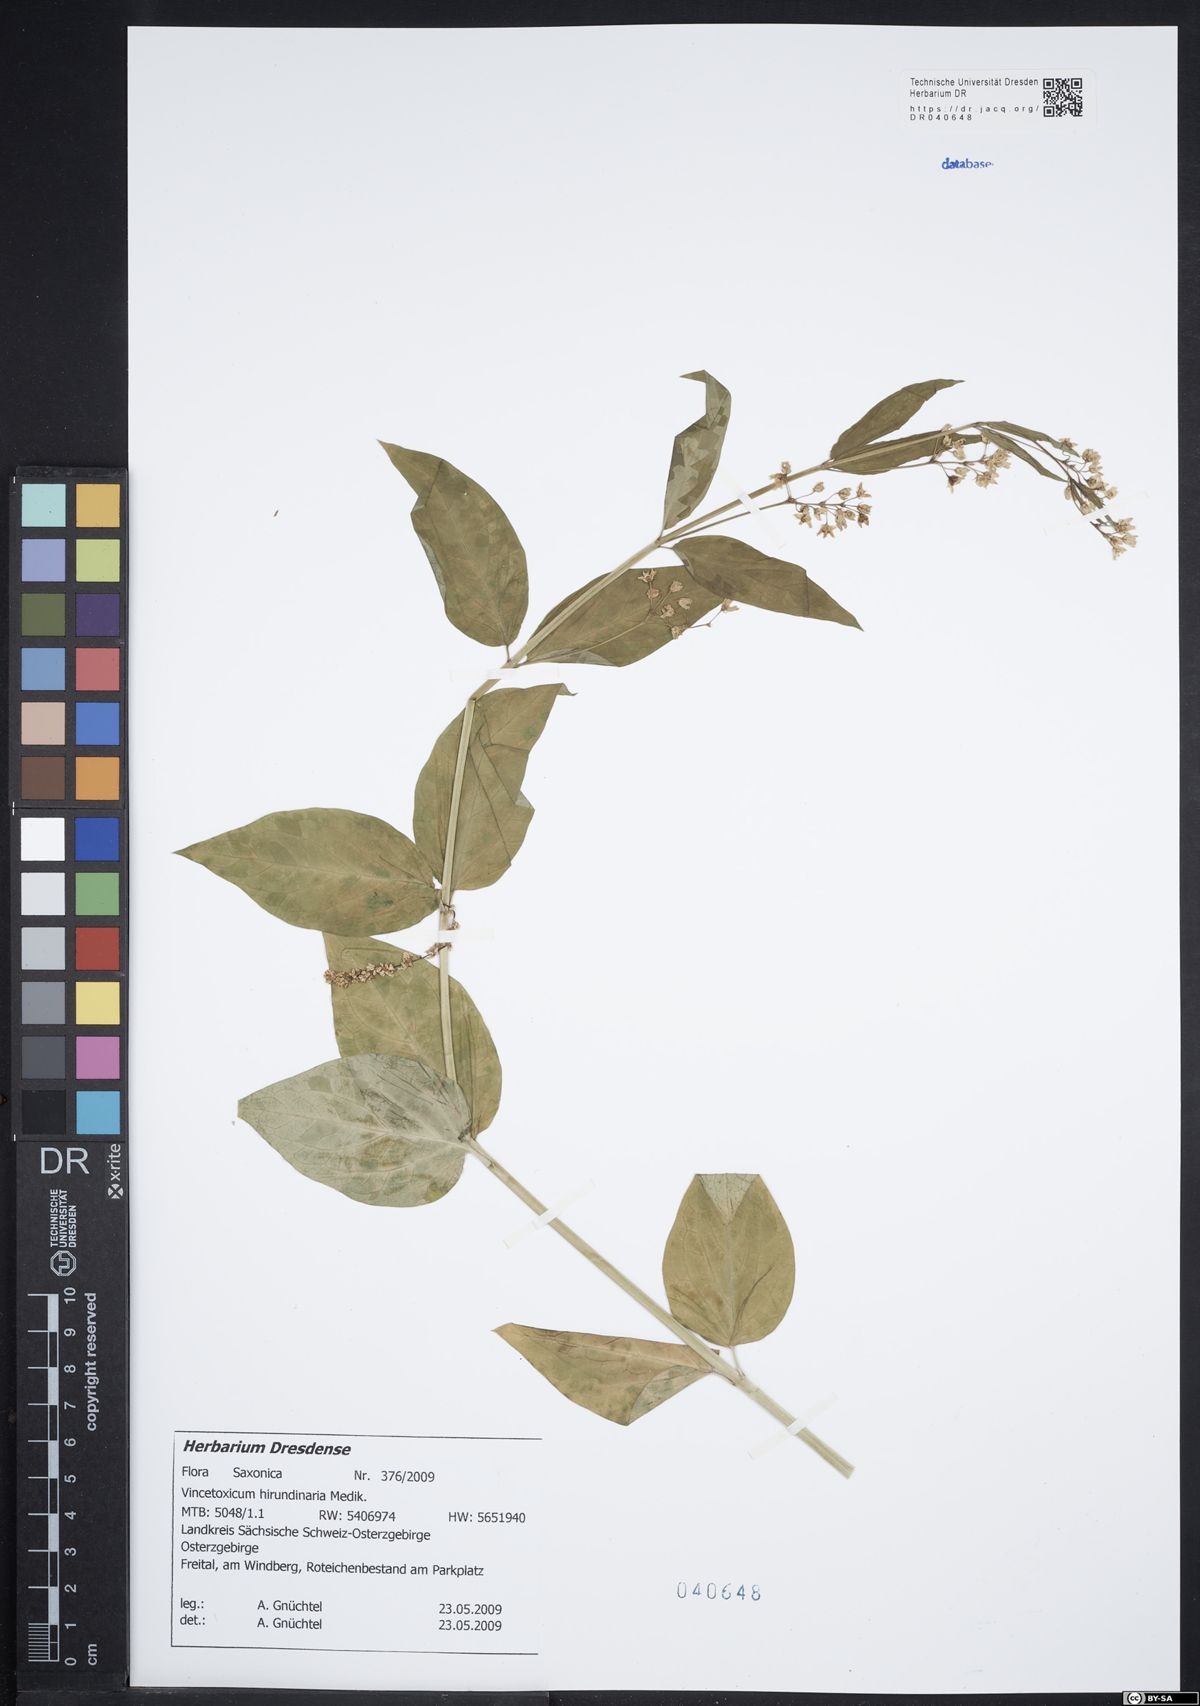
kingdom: Plantae
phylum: Tracheophyta
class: Magnoliopsida
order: Gentianales
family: Apocynaceae
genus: Vincetoxicum
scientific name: Vincetoxicum hirundinaria
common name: White swallowwort
